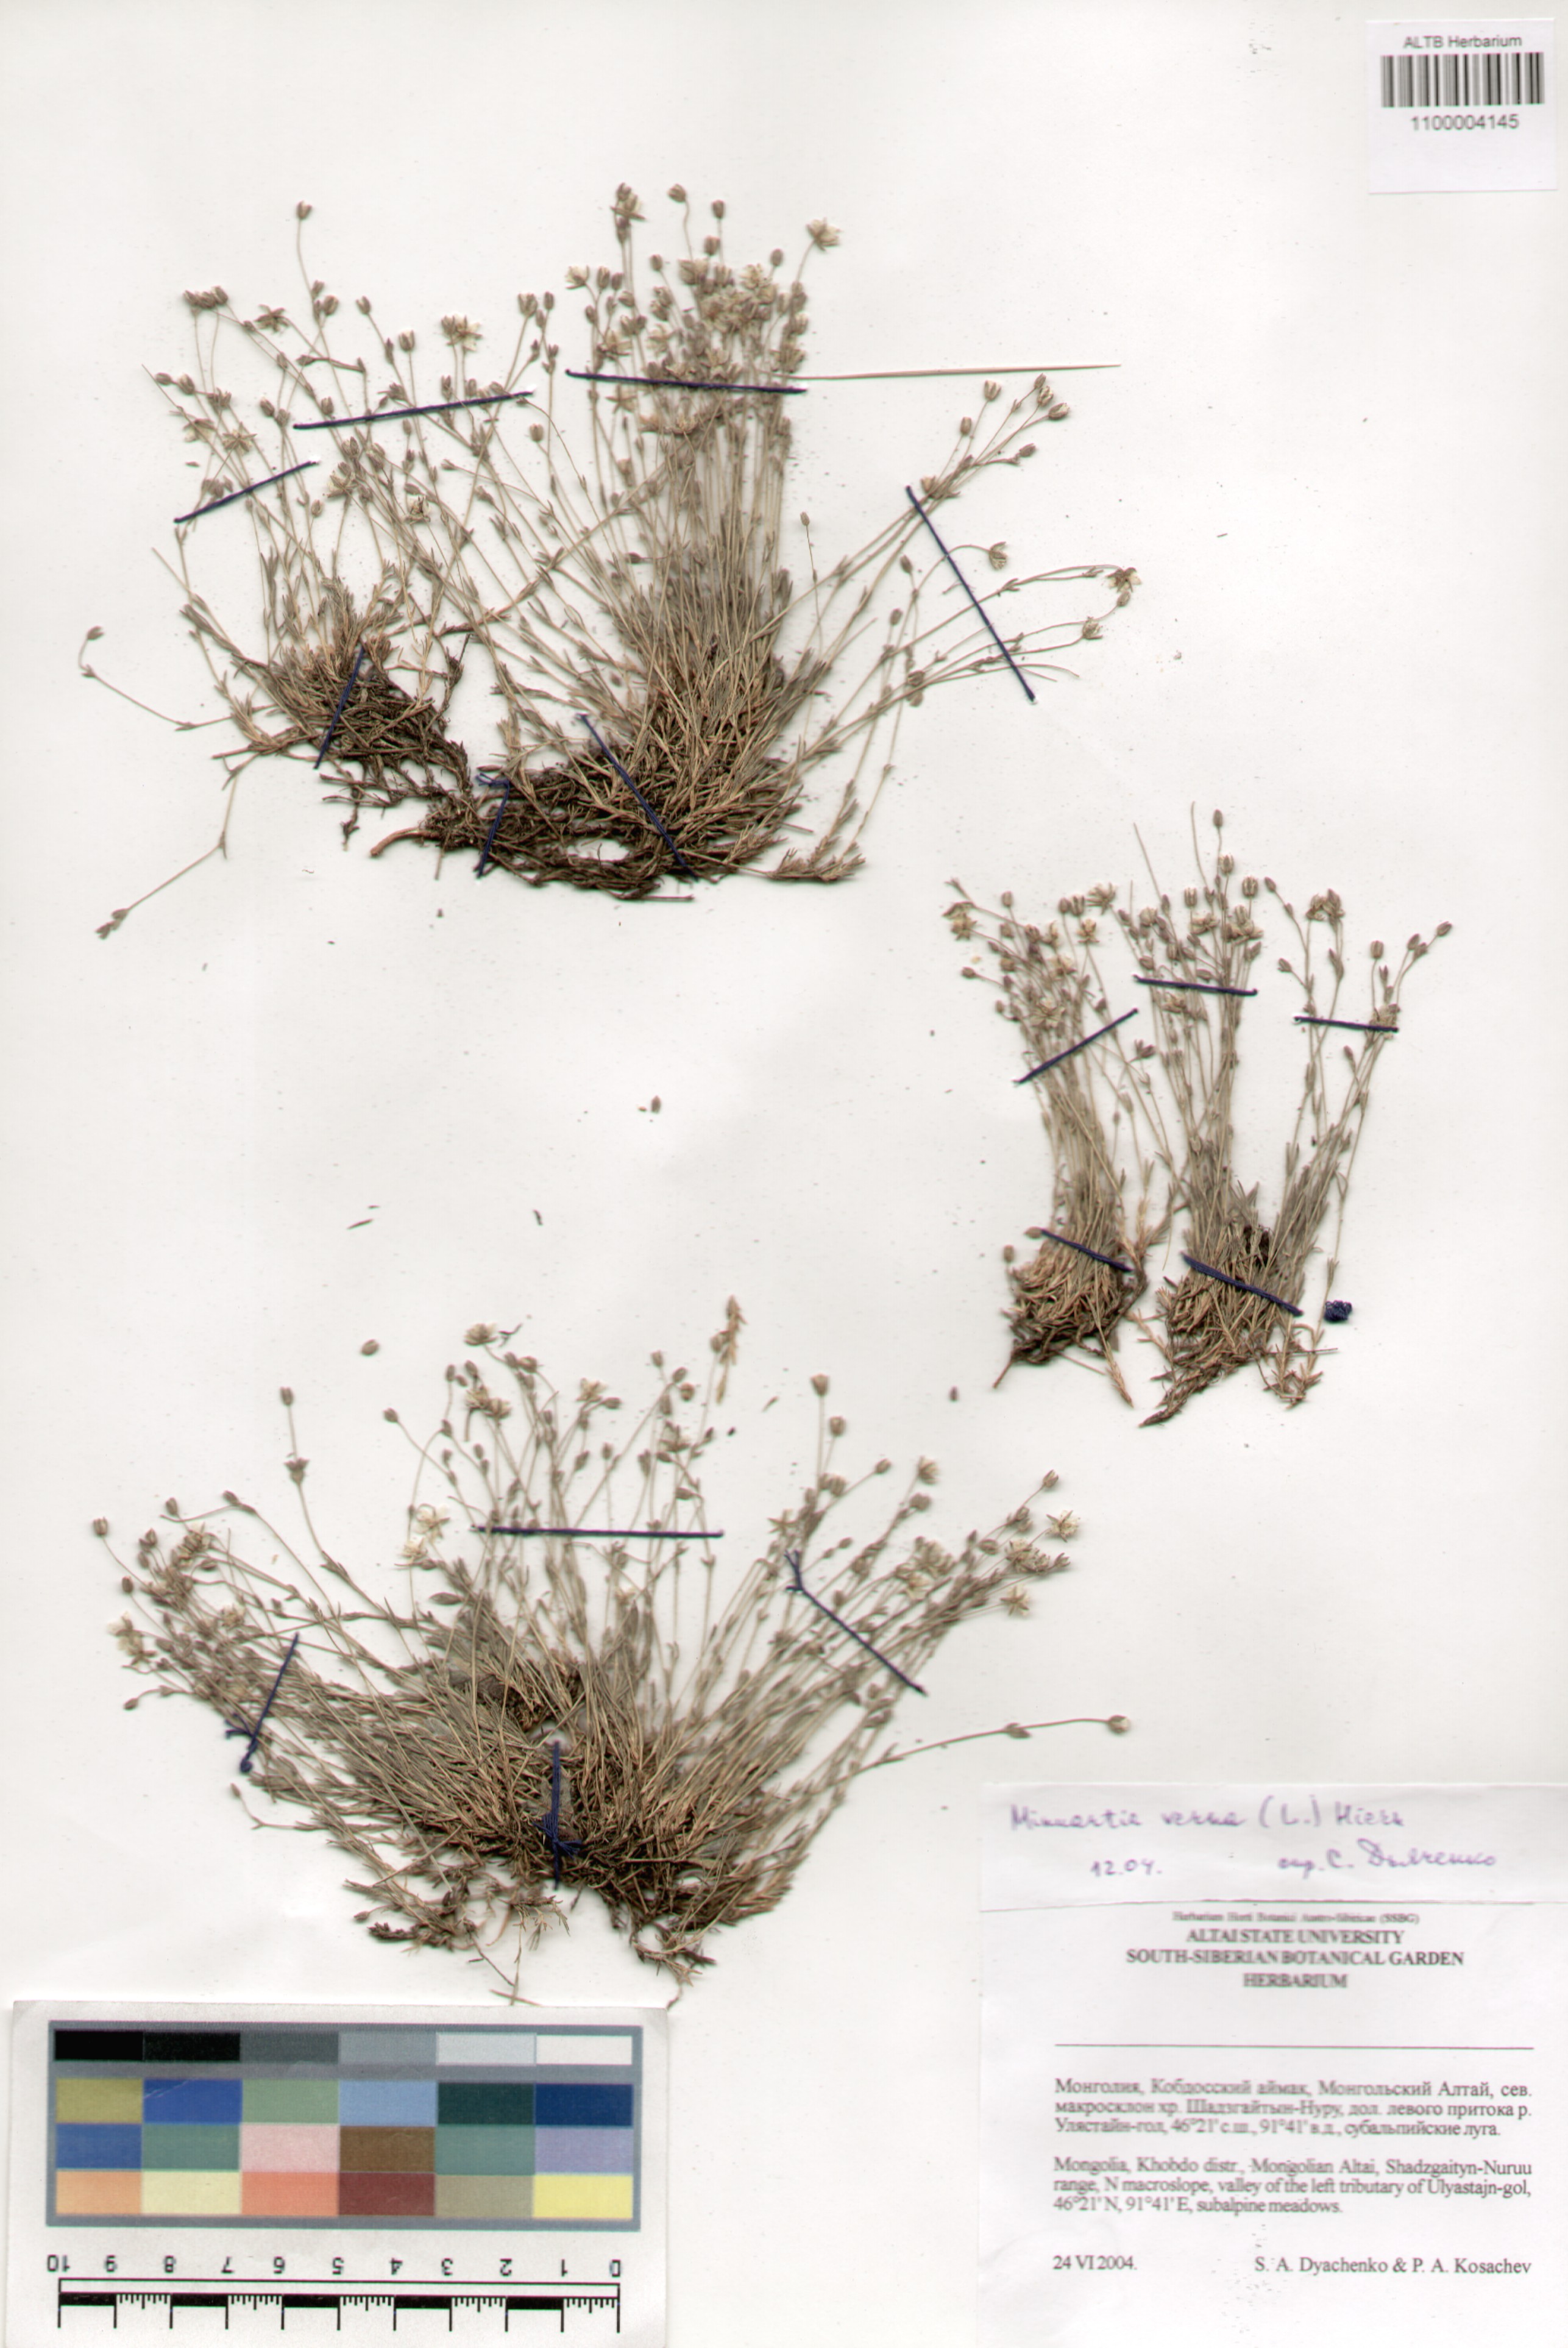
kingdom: Plantae
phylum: Tracheophyta
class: Magnoliopsida
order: Caryophyllales
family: Caryophyllaceae
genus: Sabulina
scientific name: Sabulina verna
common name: Spring sandwort
